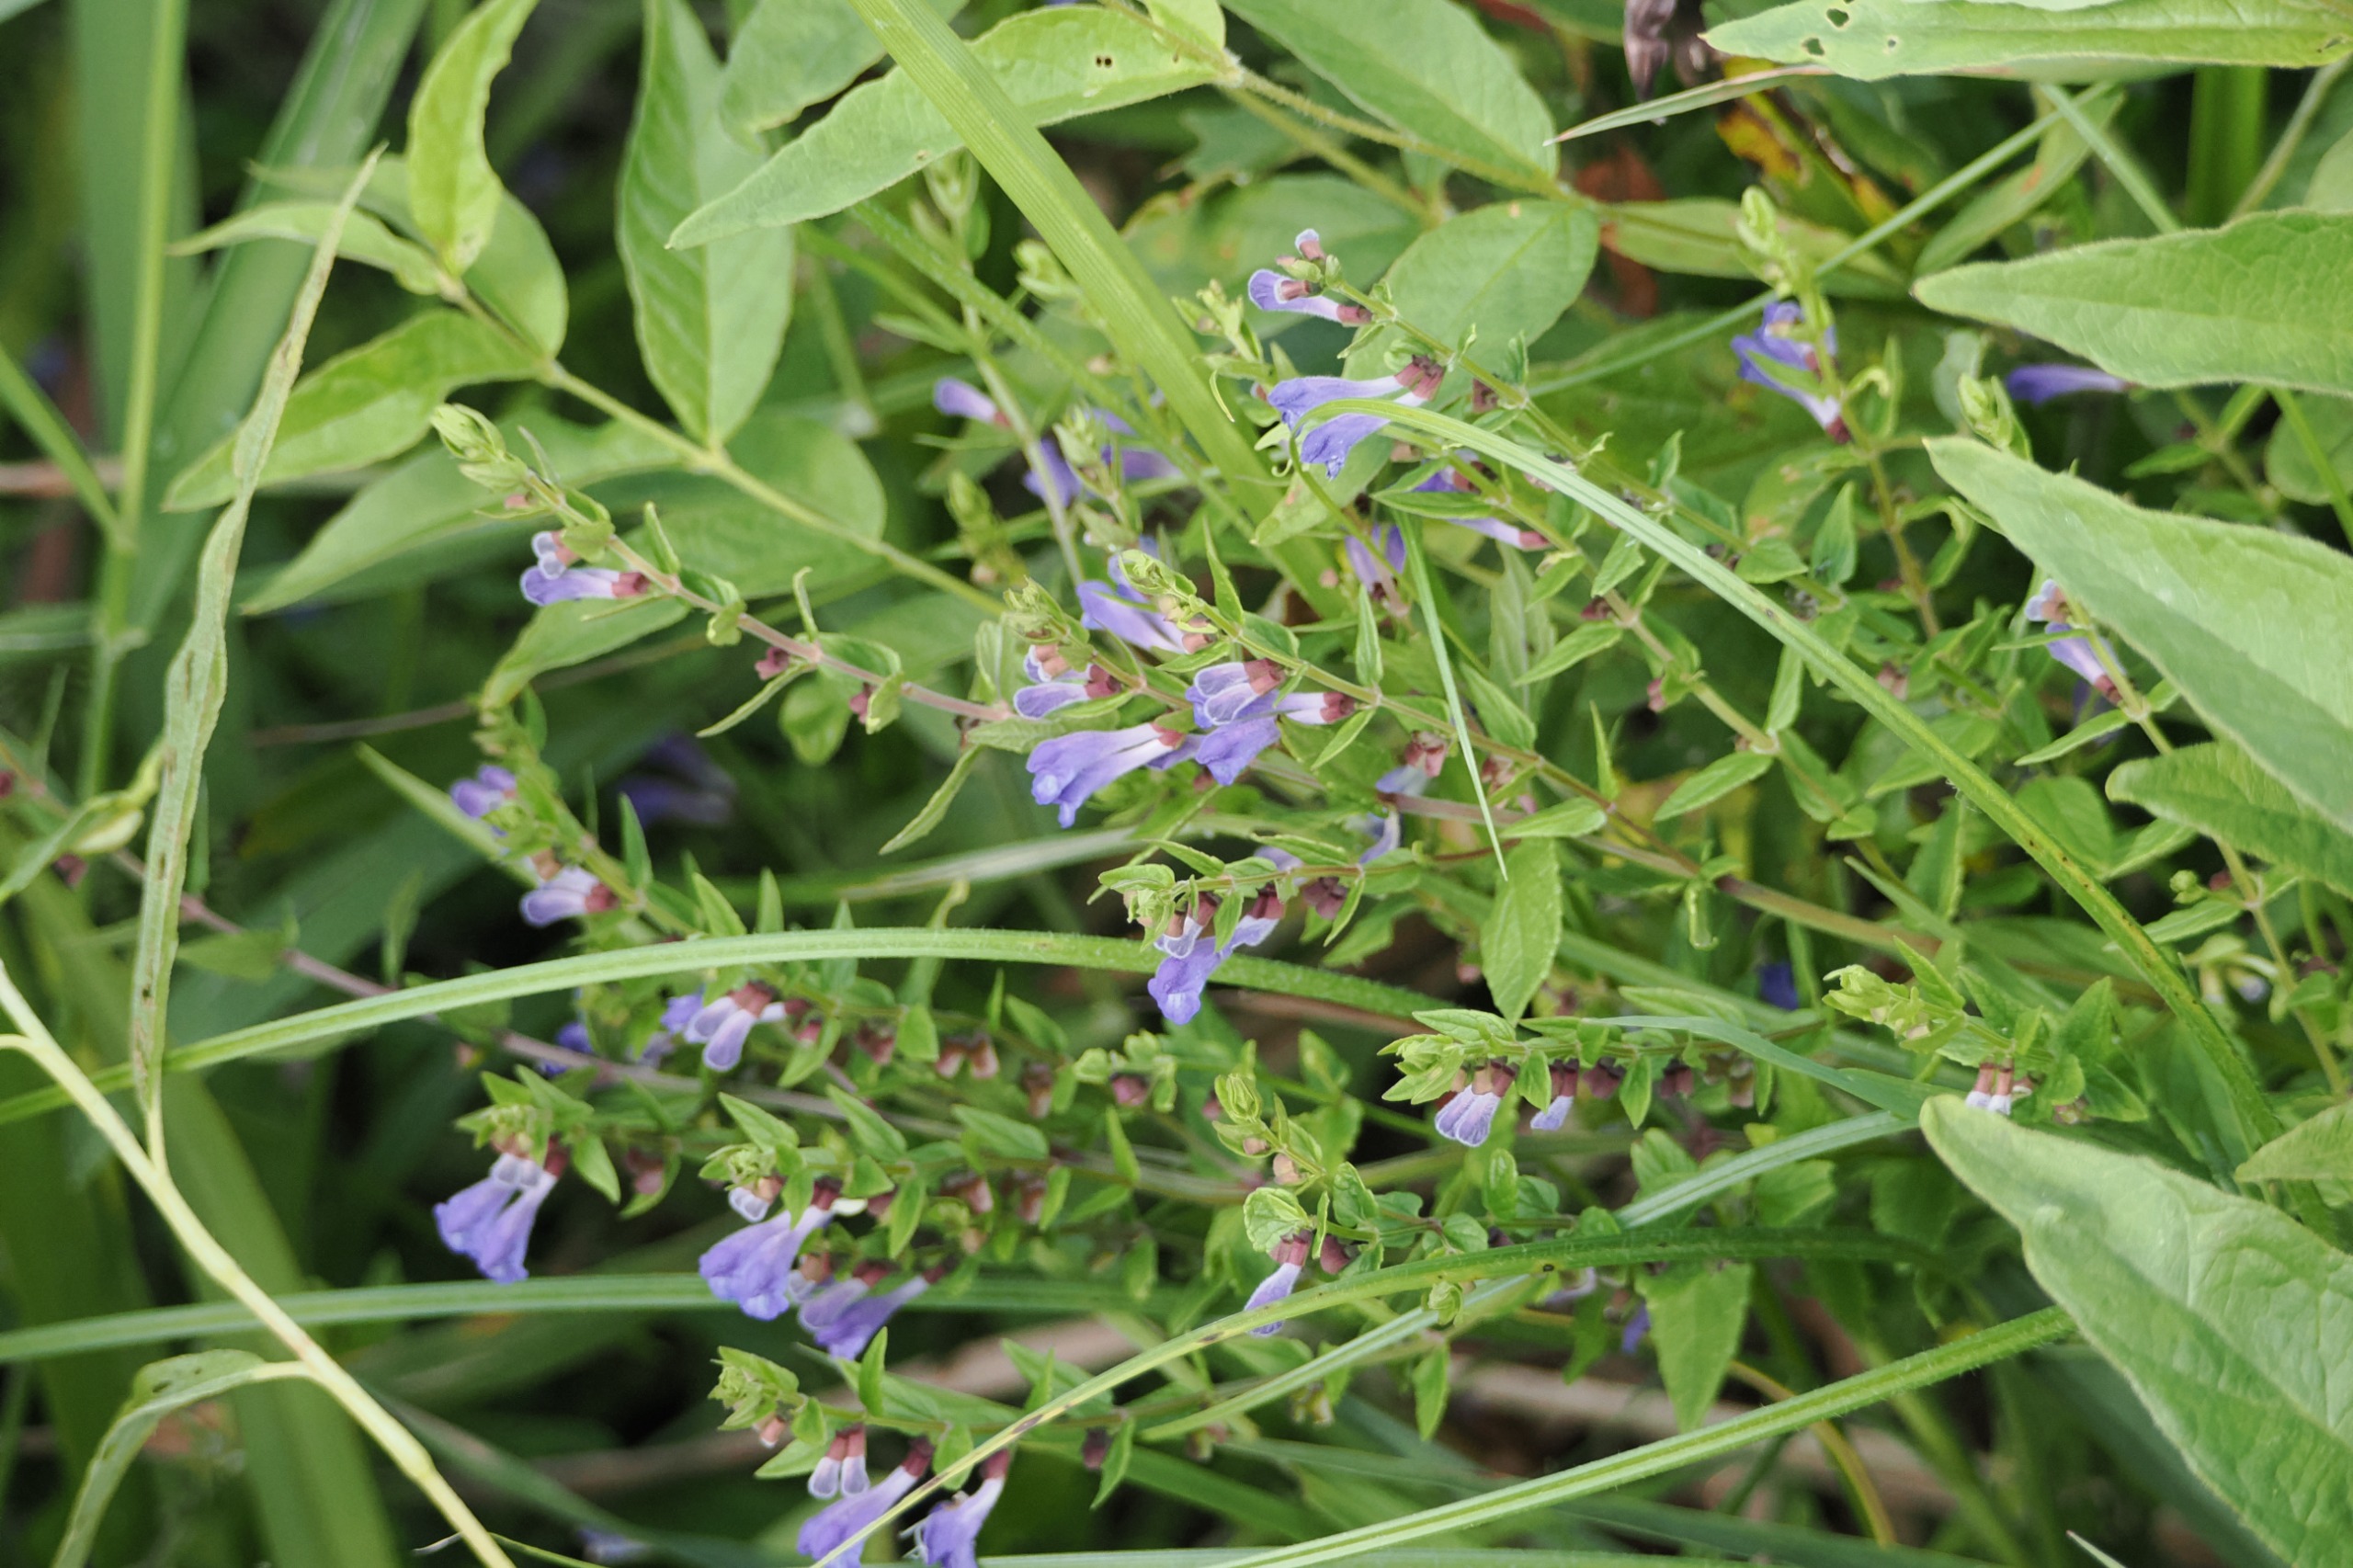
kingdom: Plantae
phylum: Tracheophyta
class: Magnoliopsida
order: Lamiales
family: Lamiaceae
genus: Scutellaria
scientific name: Scutellaria galericulata
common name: Almindelig skjolddrager
